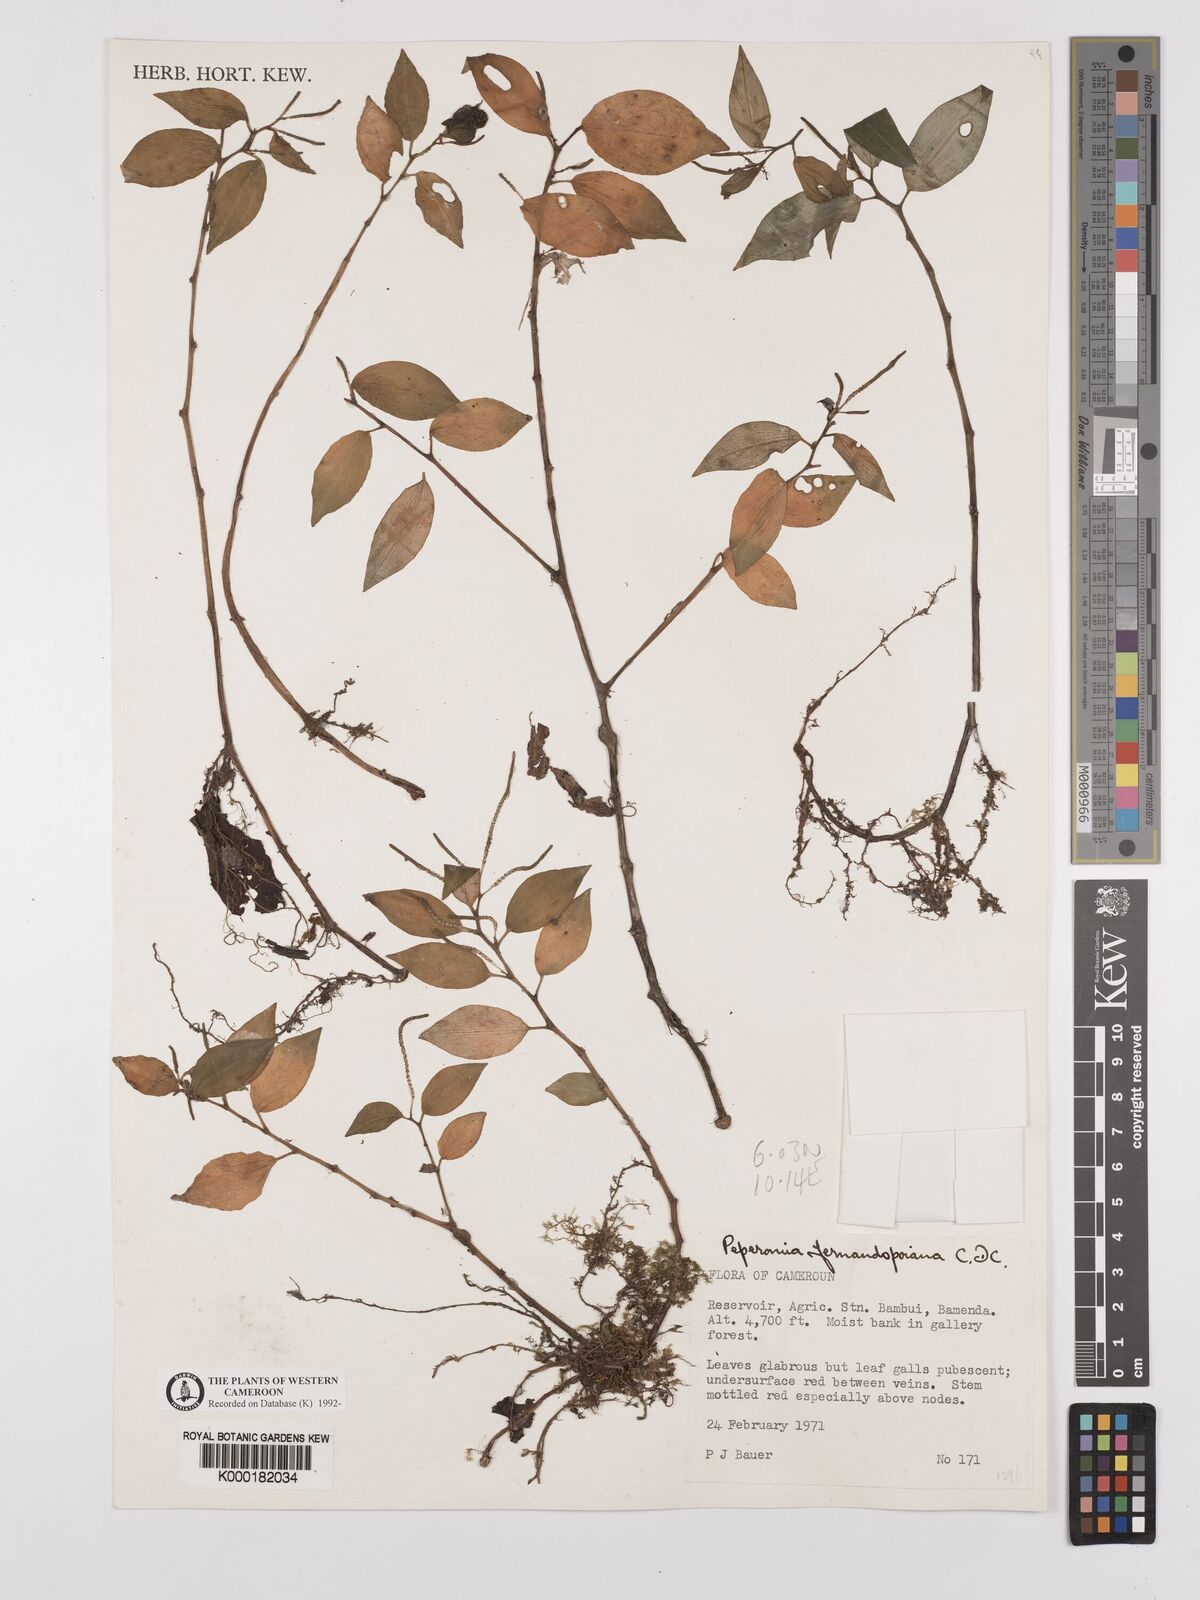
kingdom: Plantae
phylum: Tracheophyta
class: Magnoliopsida
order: Piperales
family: Piperaceae
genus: Peperomia
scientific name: Peperomia fernandopoiana
